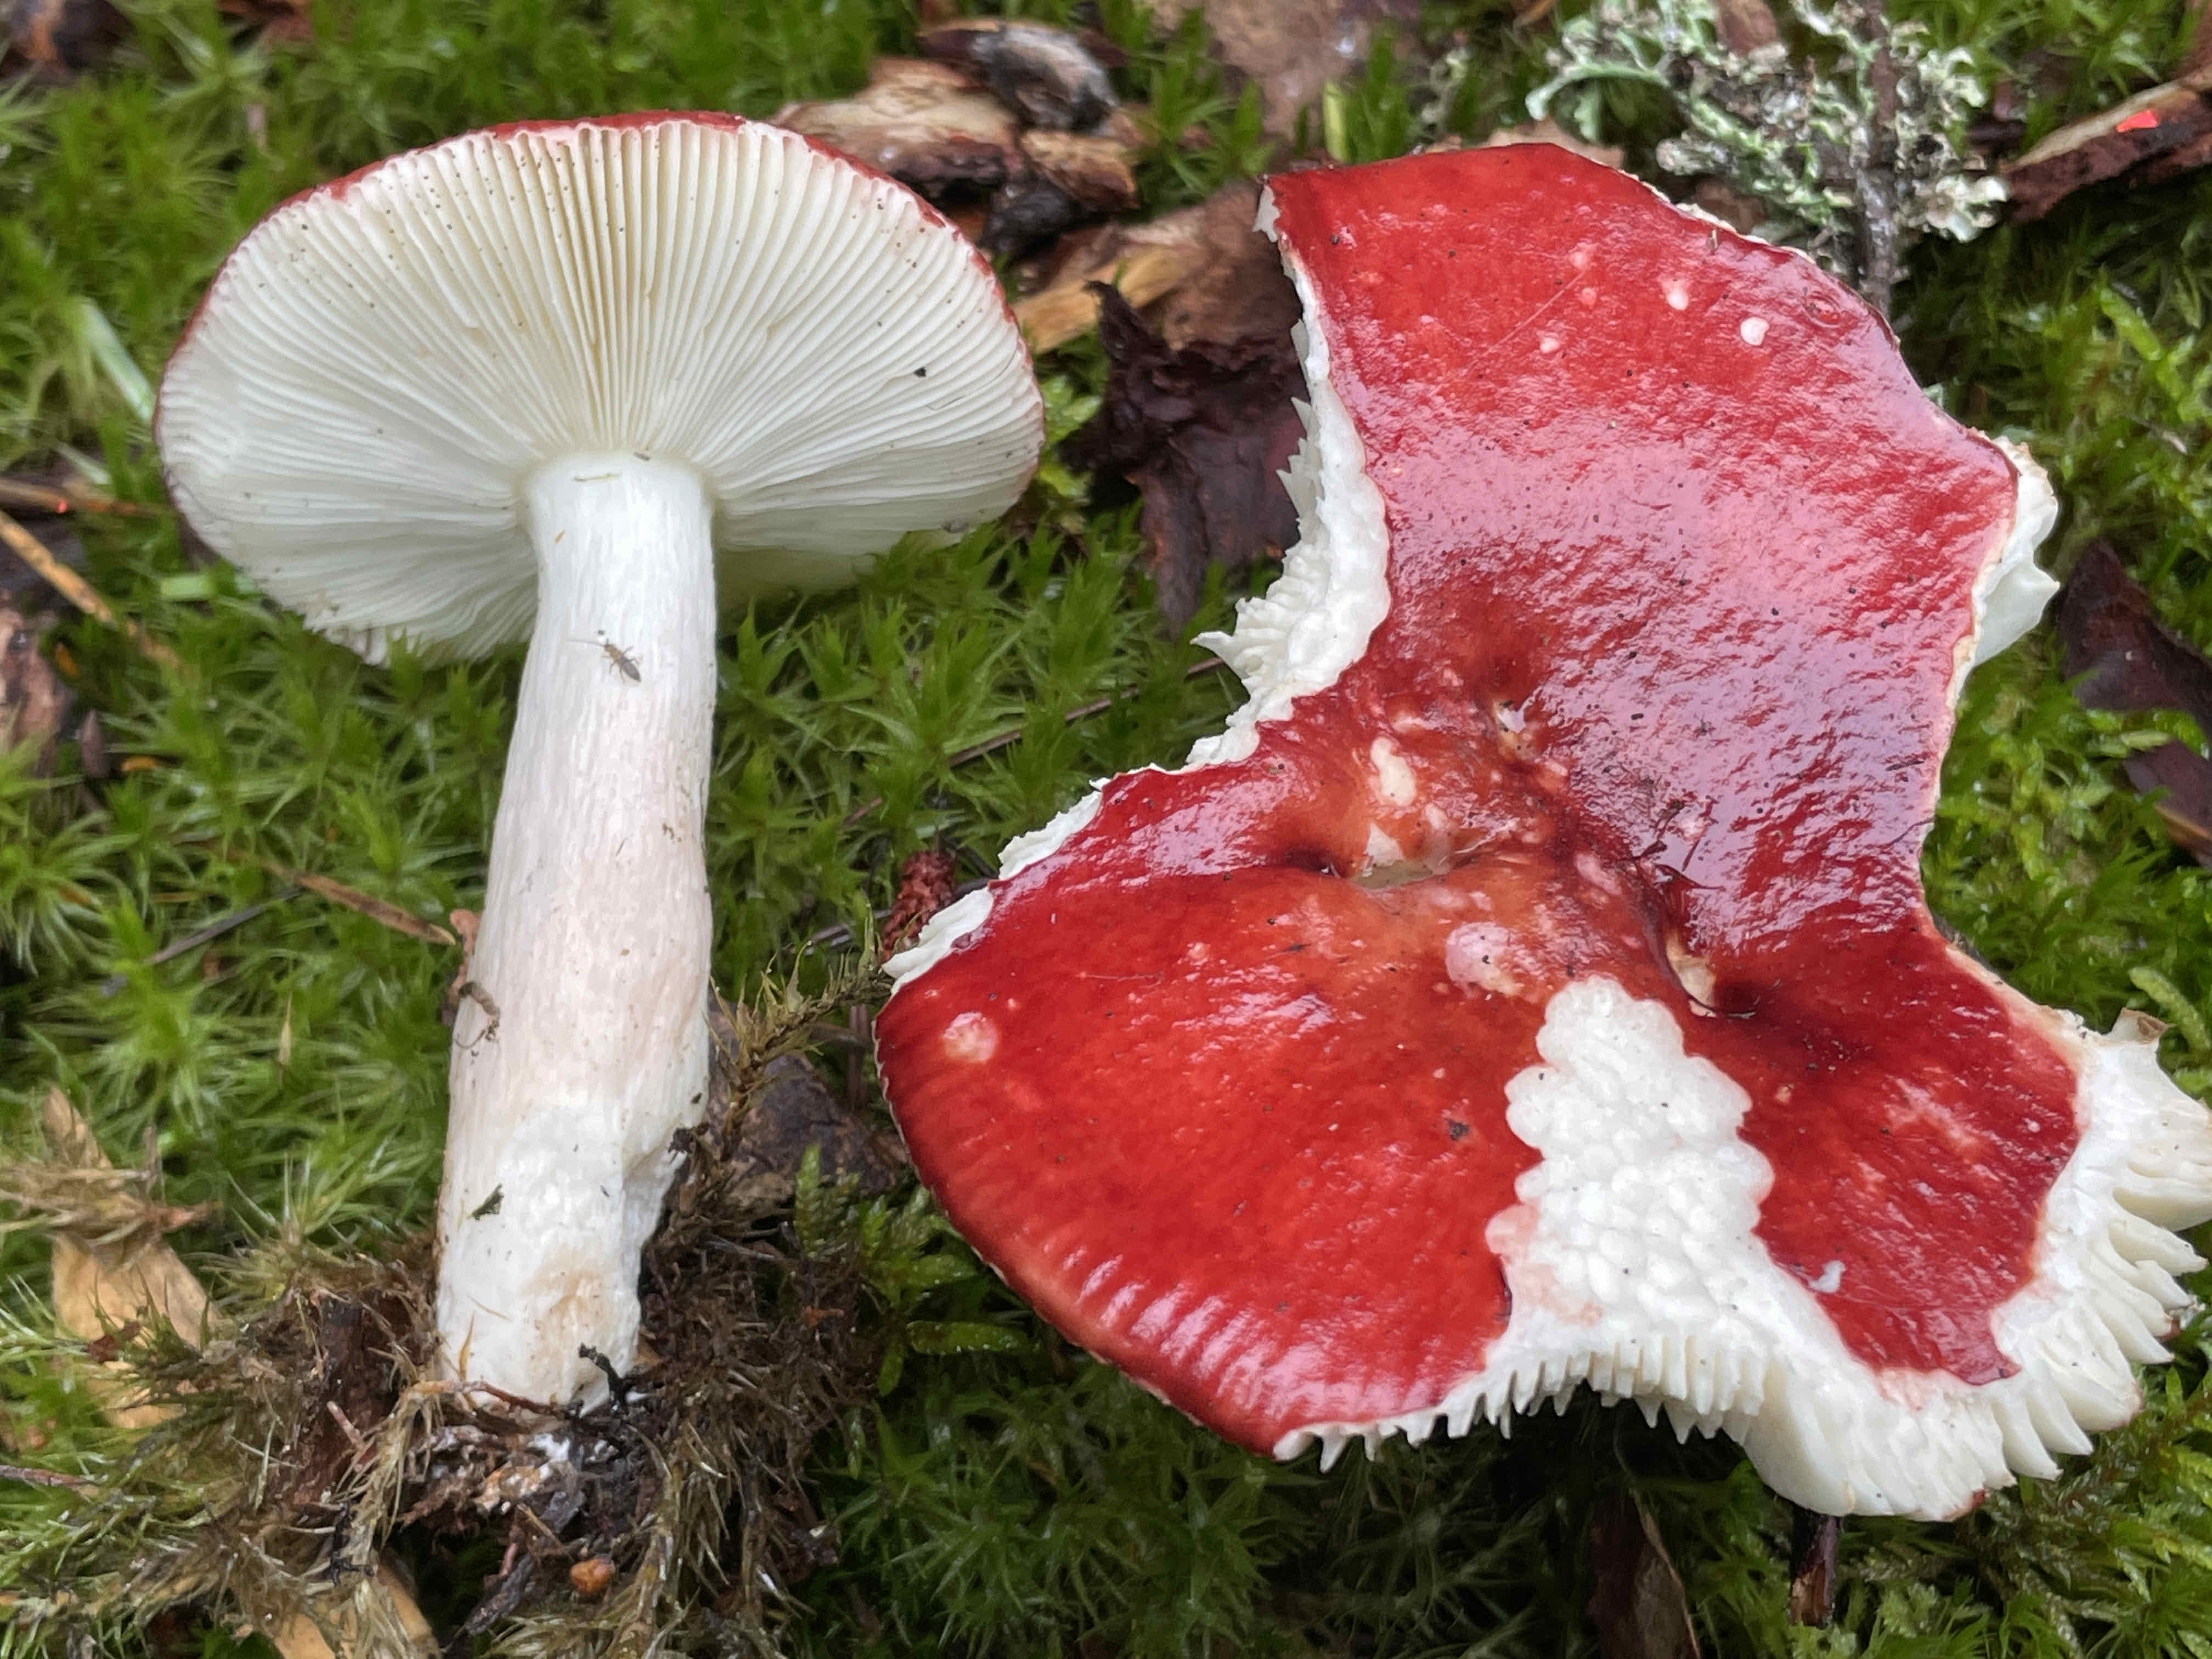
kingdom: Fungi
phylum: Basidiomycota
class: Agaricomycetes
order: Russulales
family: Russulaceae
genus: Russula
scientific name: Russula paludosa
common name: prægtig skørhat
